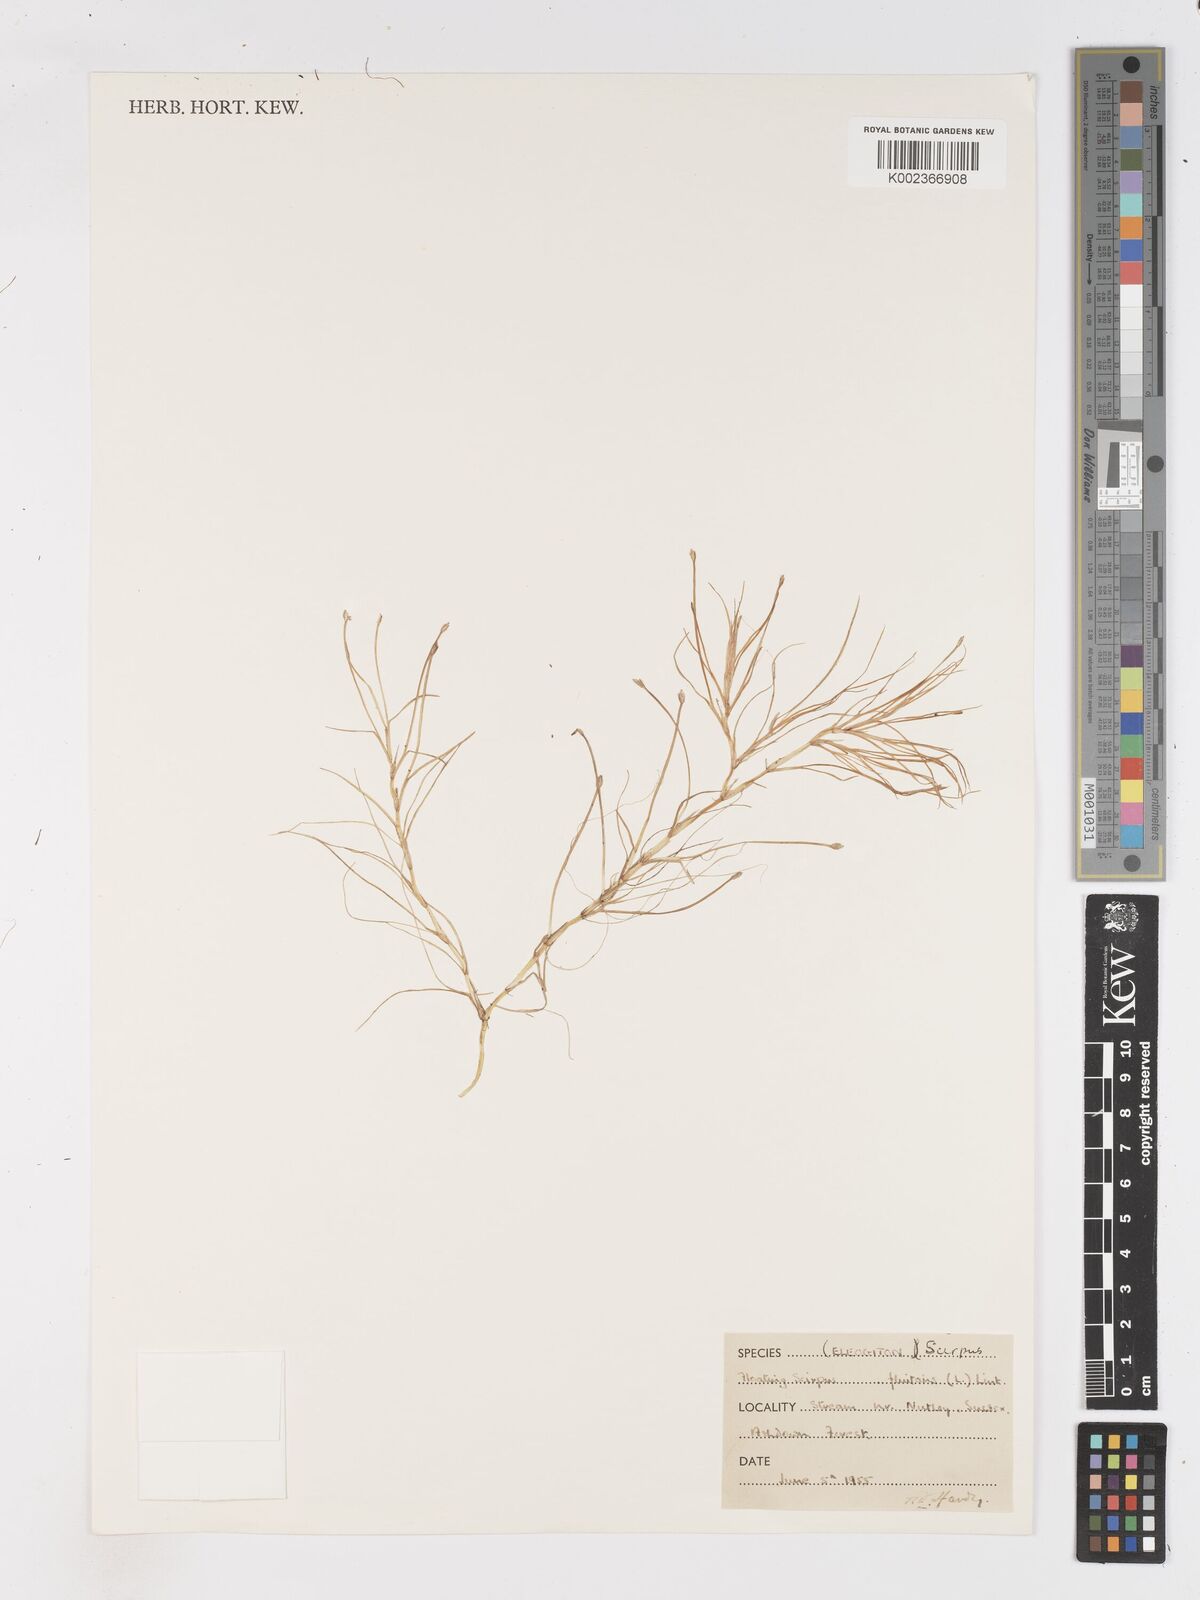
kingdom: Plantae
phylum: Tracheophyta
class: Liliopsida
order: Poales
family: Cyperaceae
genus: Isolepis
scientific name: Isolepis fluitans
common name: Floating club-rush
